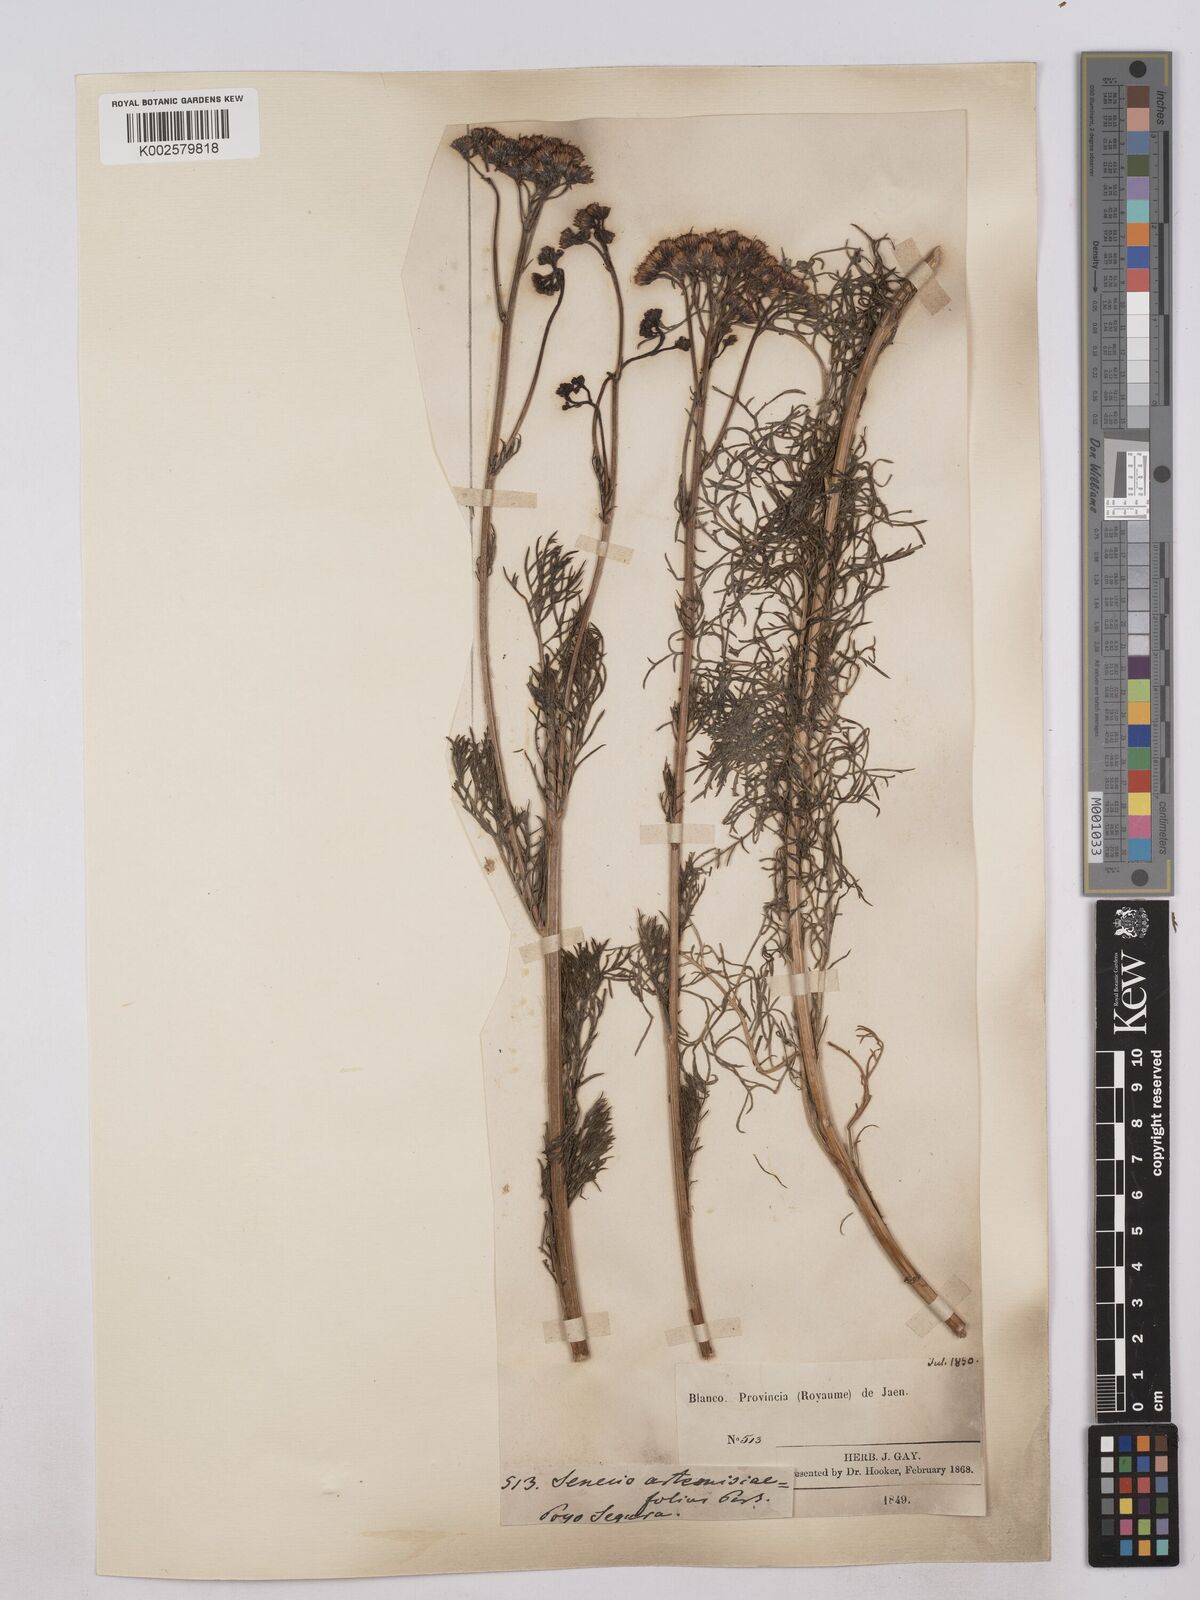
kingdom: Plantae
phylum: Tracheophyta
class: Magnoliopsida
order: Asterales
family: Asteraceae
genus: Jacobaea
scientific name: Jacobaea adonidifolia
